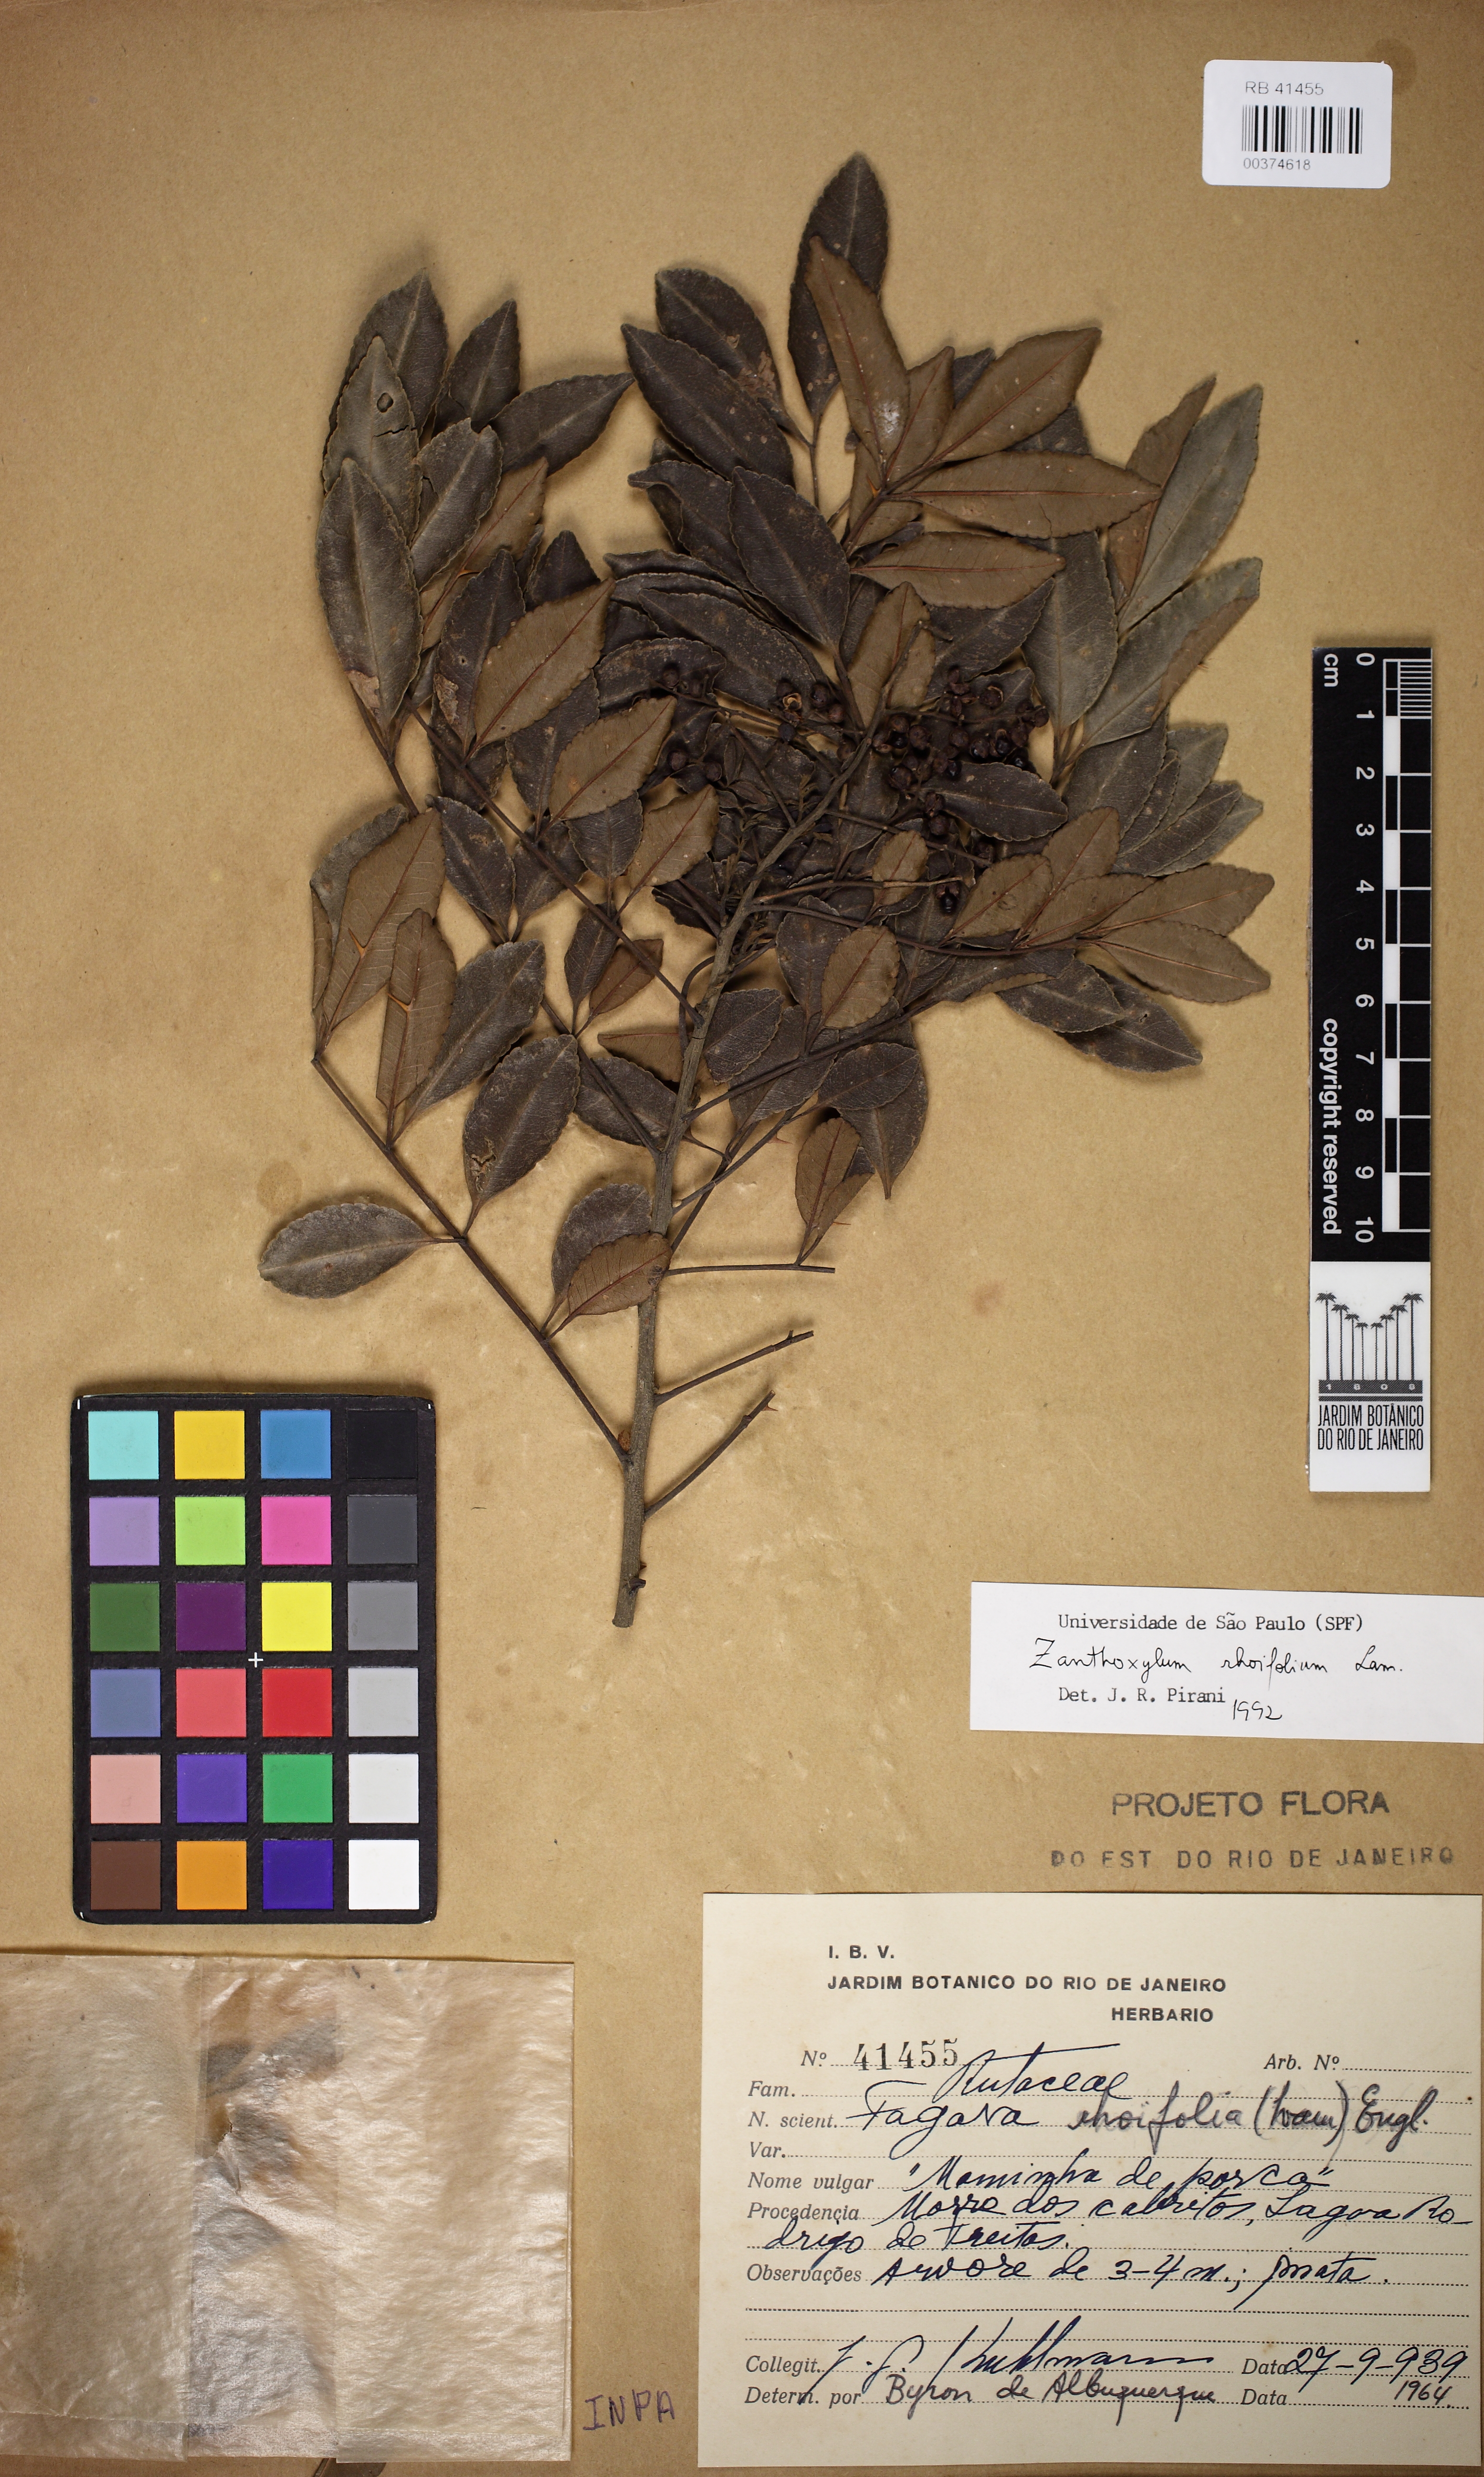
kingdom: Plantae
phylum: Tracheophyta
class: Magnoliopsida
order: Sapindales
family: Rutaceae
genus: Zanthoxylum
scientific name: Zanthoxylum rhoifolium
